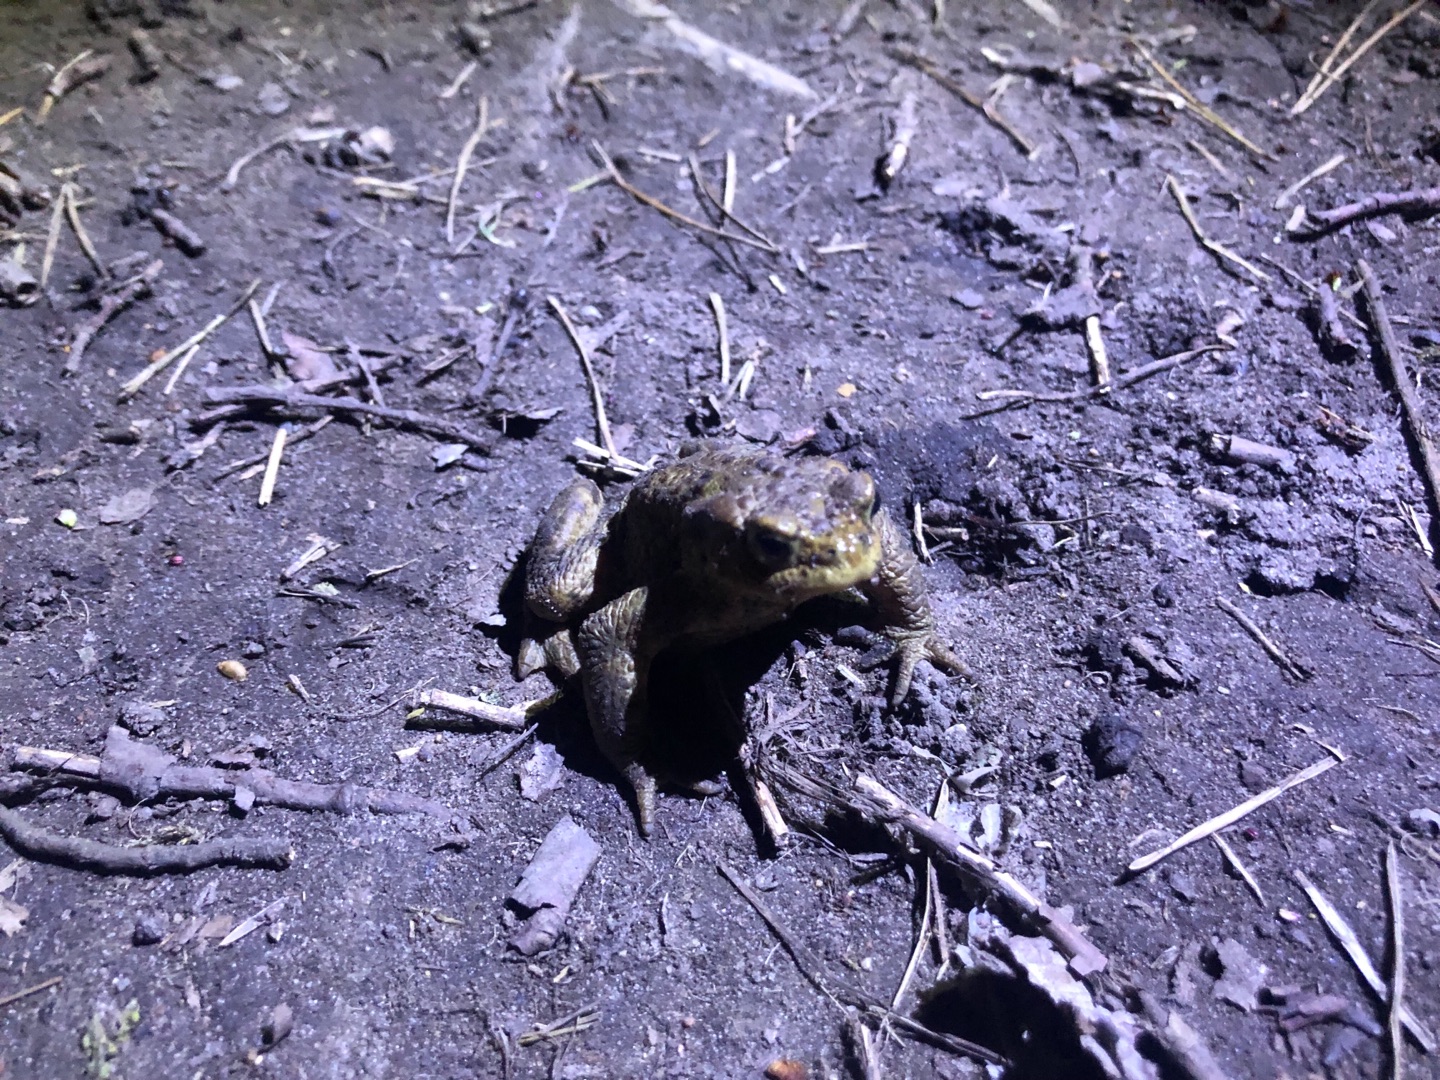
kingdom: Animalia
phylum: Chordata
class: Amphibia
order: Anura
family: Bufonidae
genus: Bufo
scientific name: Bufo bufo
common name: Skrubtudse
